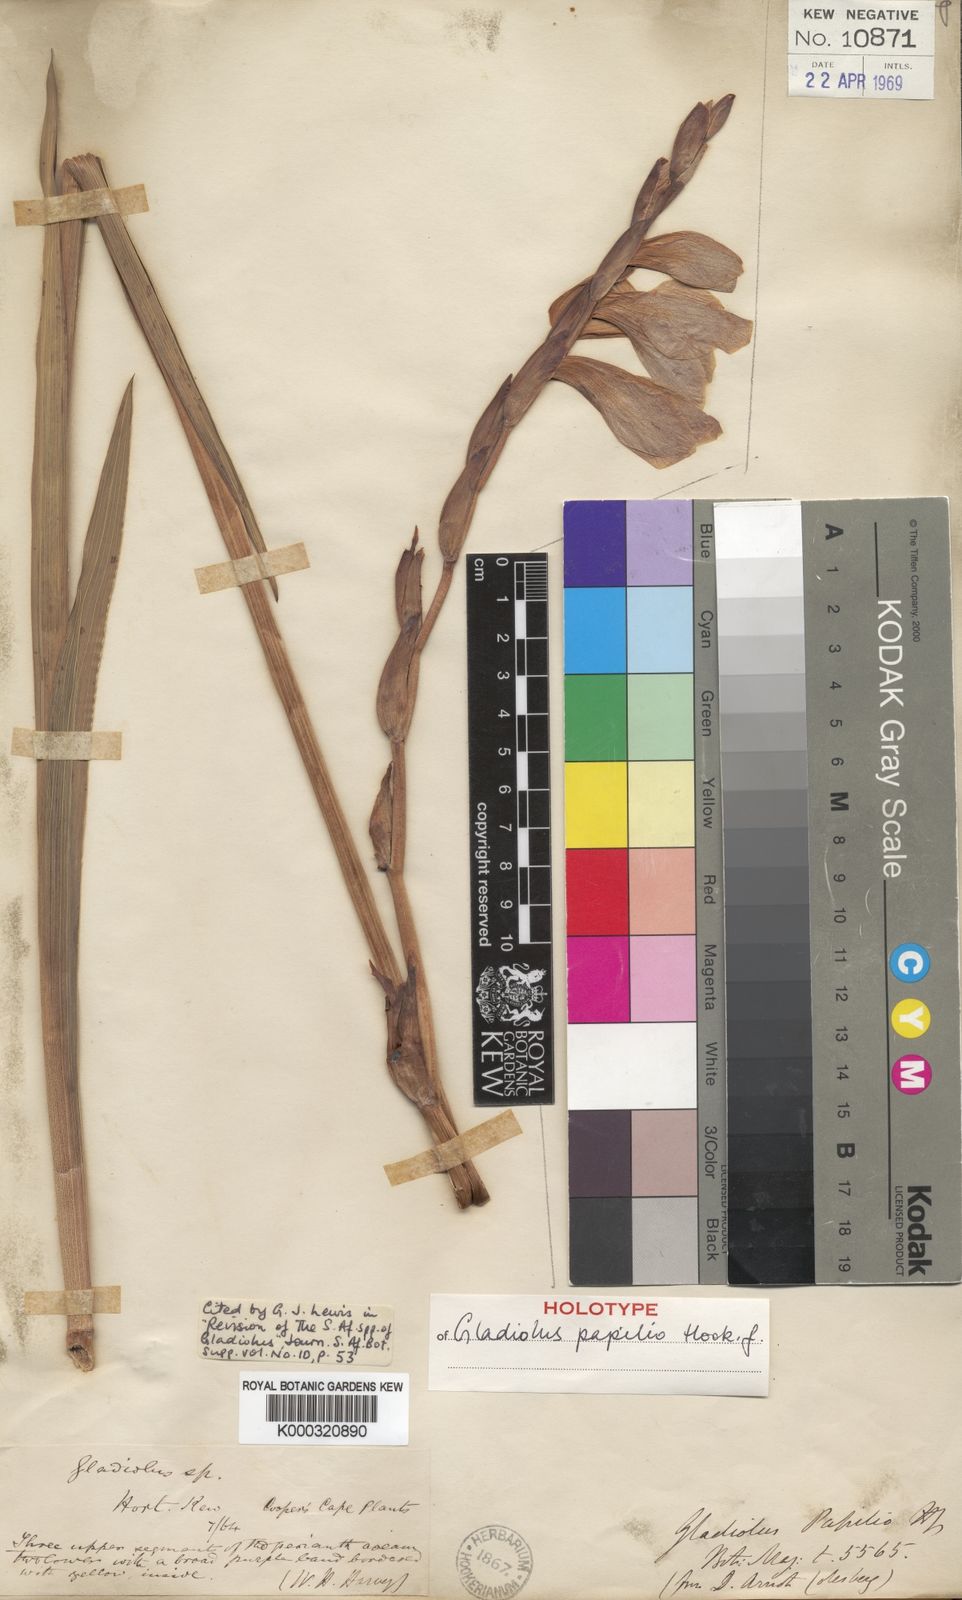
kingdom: Plantae
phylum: Tracheophyta
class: Liliopsida
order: Asparagales
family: Iridaceae
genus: Gladiolus
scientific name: Gladiolus papilio
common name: Goldblotch gladiolus
